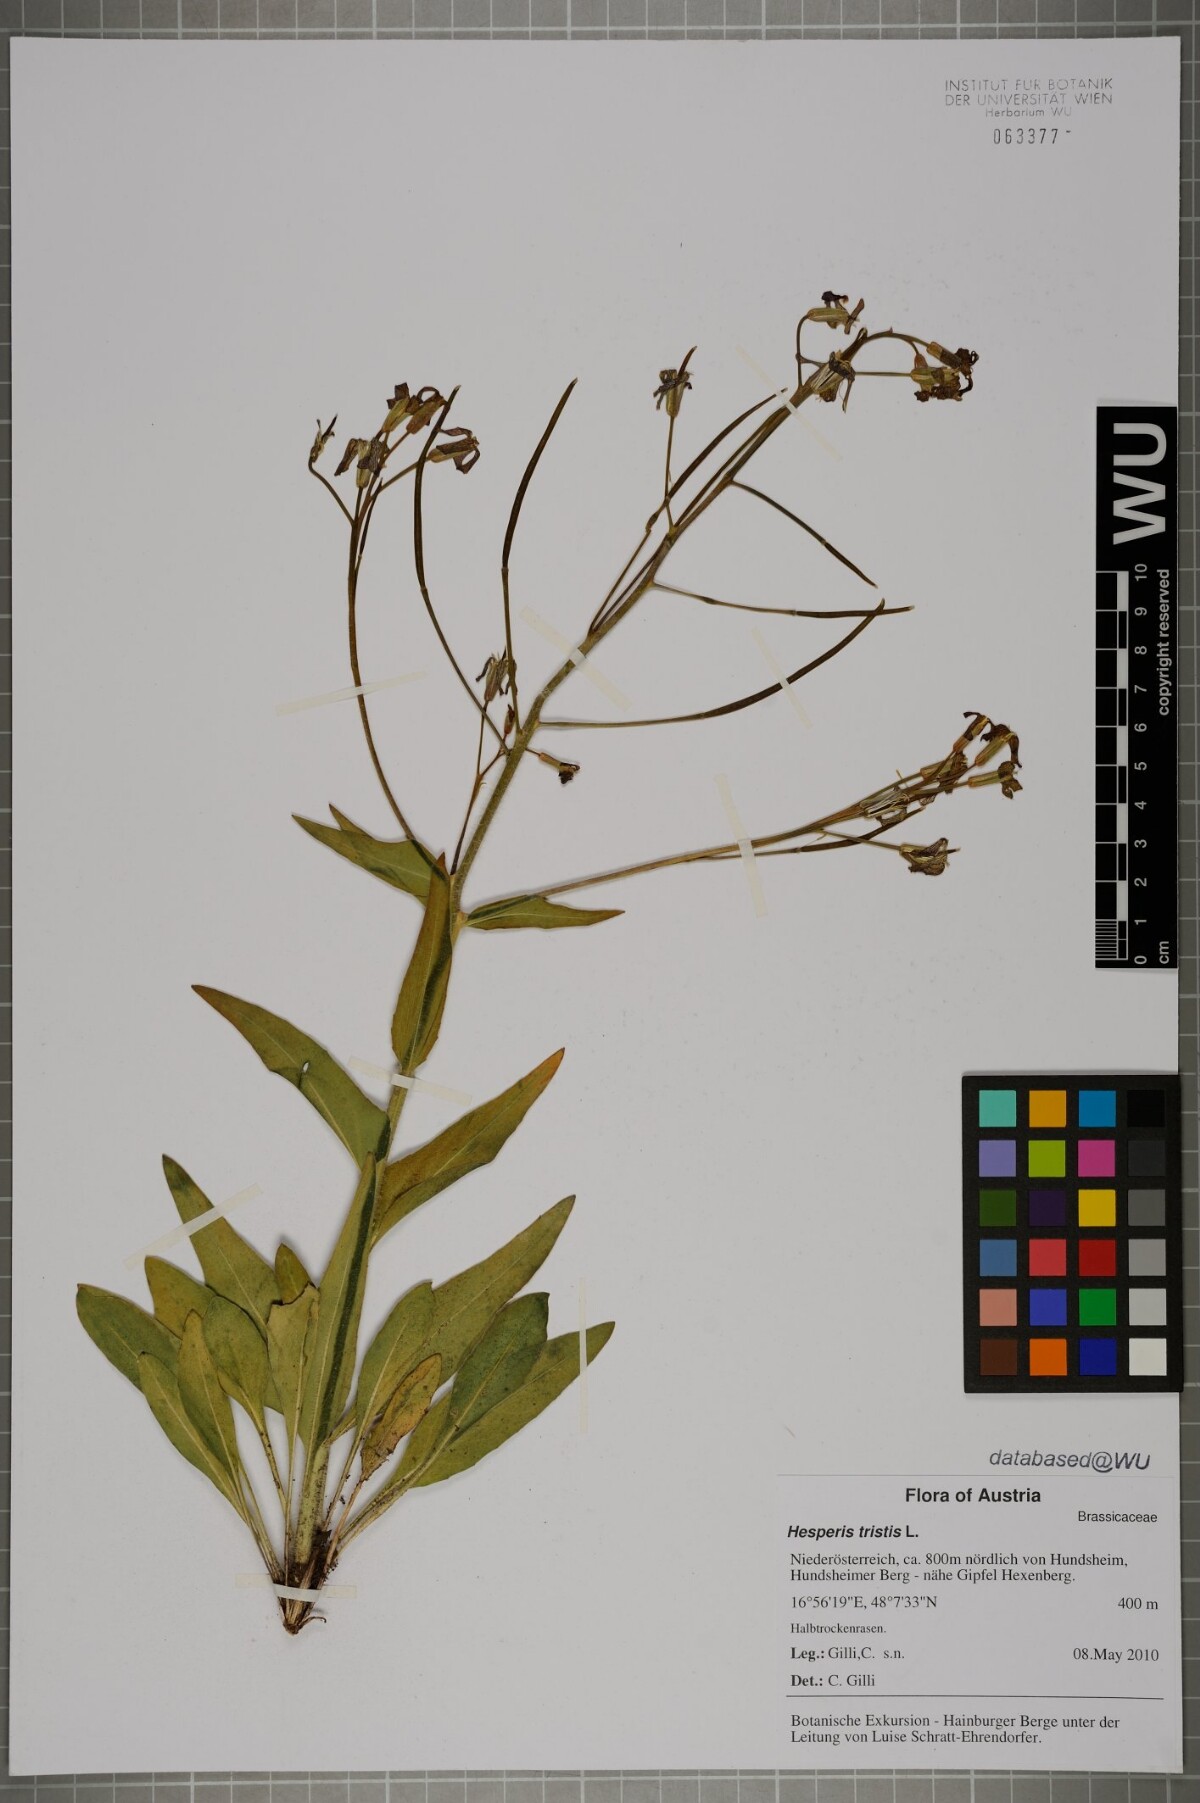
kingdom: Plantae
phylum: Tracheophyta
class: Magnoliopsida
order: Brassicales
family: Brassicaceae
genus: Hesperis
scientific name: Hesperis tristis
